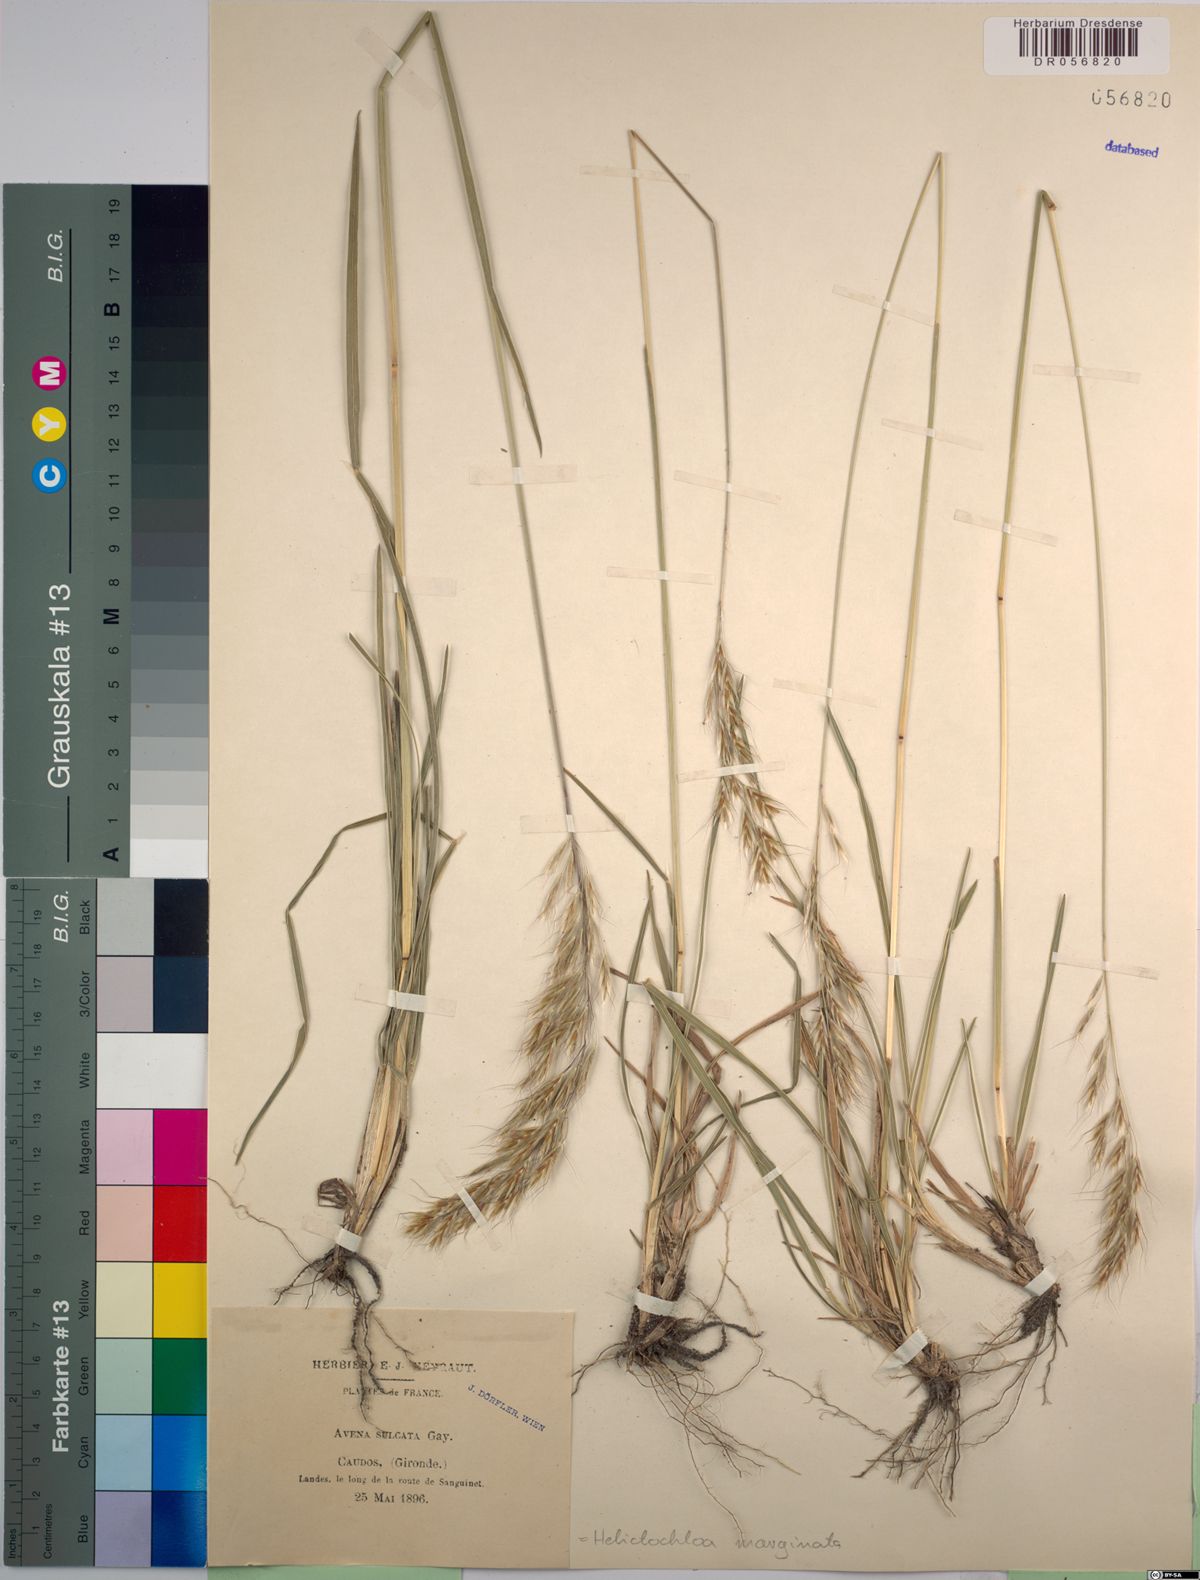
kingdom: Plantae
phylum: Tracheophyta
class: Liliopsida
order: Poales
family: Poaceae
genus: Helictochloa
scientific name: Helictochloa marginata
